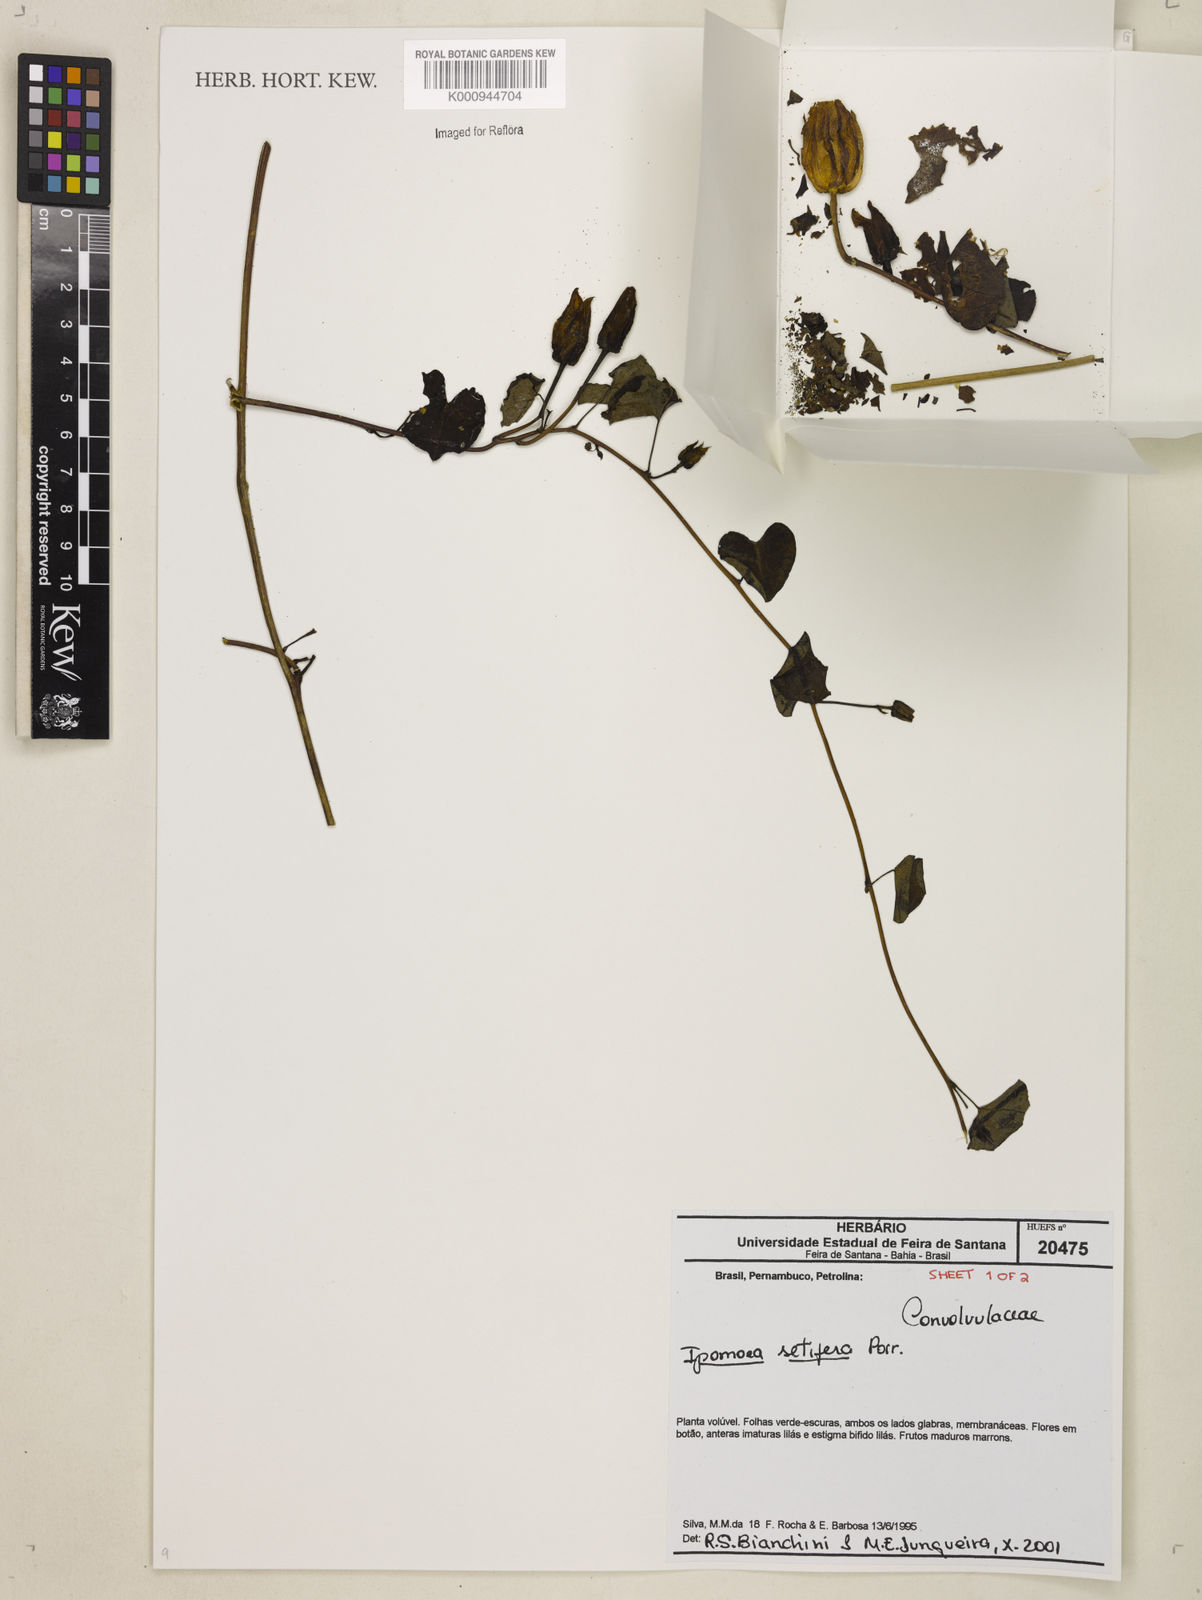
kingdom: Plantae
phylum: Tracheophyta
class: Magnoliopsida
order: Solanales
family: Convolvulaceae
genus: Ipomoea
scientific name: Ipomoea setifera
